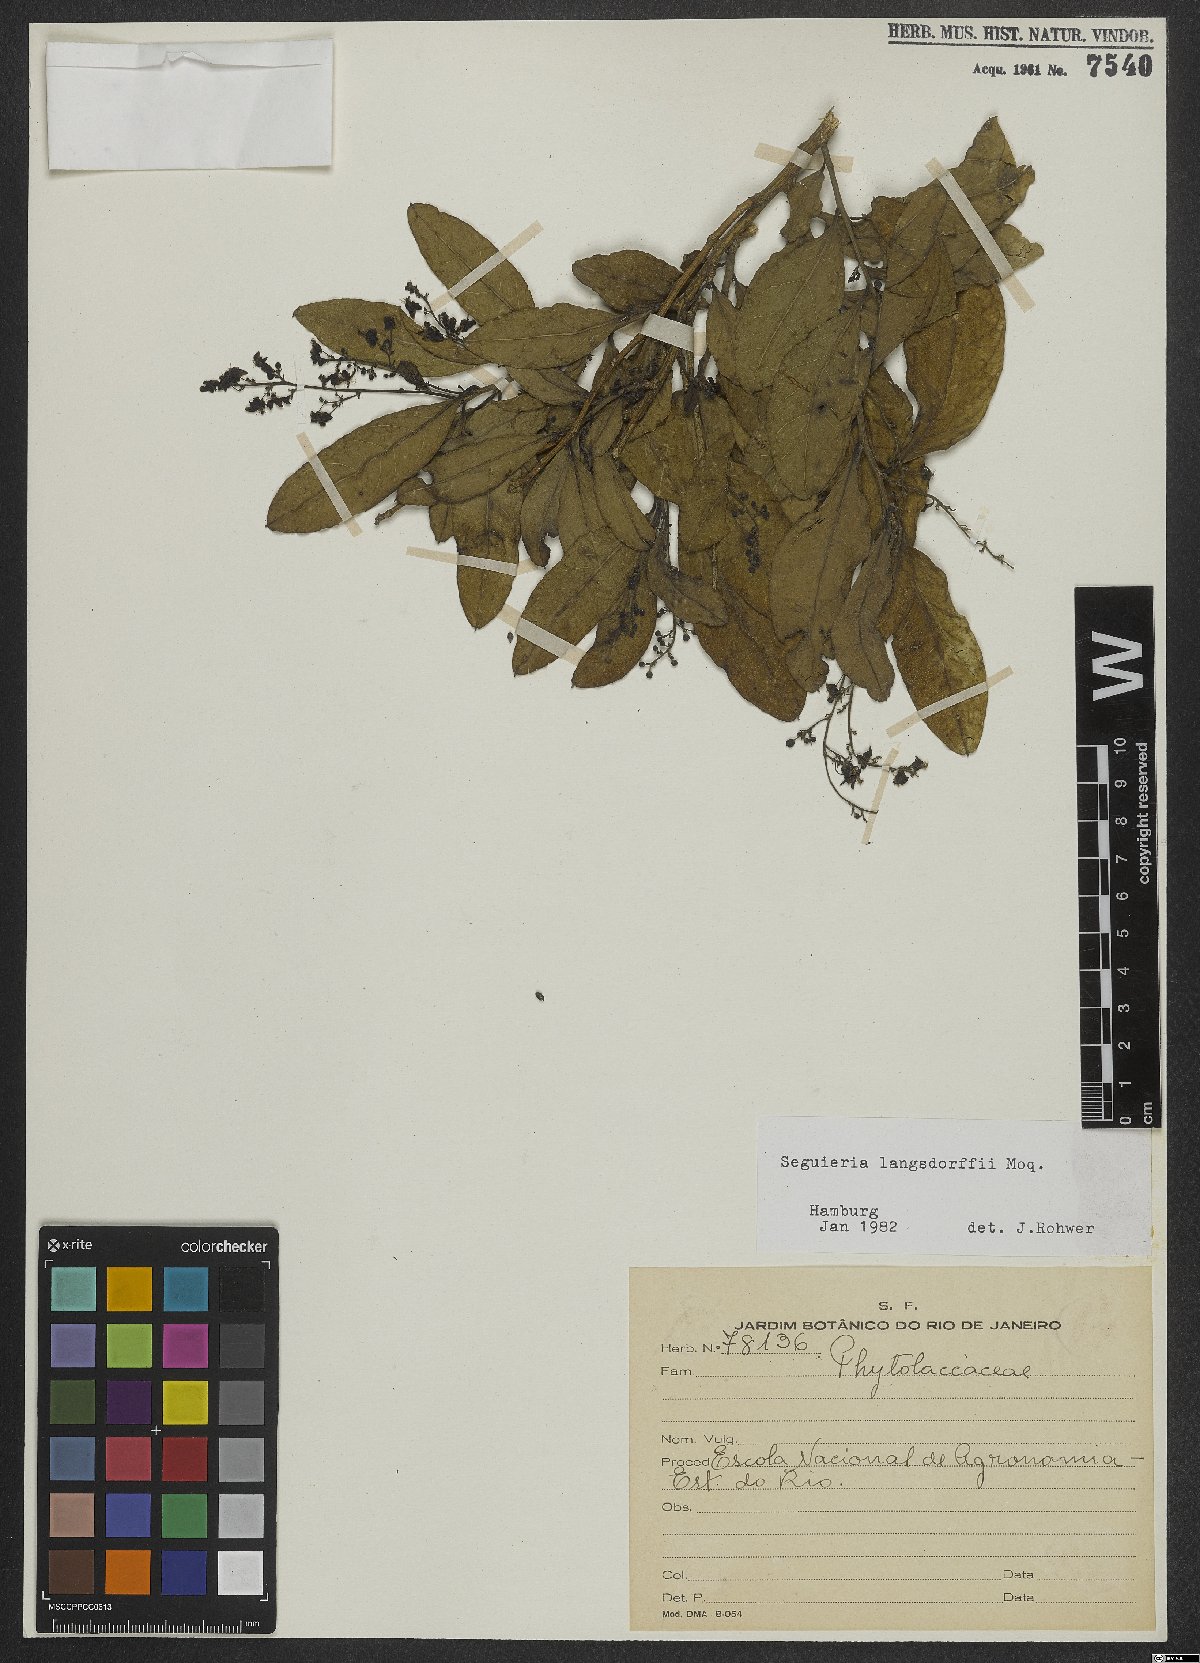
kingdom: Plantae
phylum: Tracheophyta
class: Magnoliopsida
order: Caryophyllales
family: Phytolaccaceae
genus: Seguieria
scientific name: Seguieria langsdorffii
